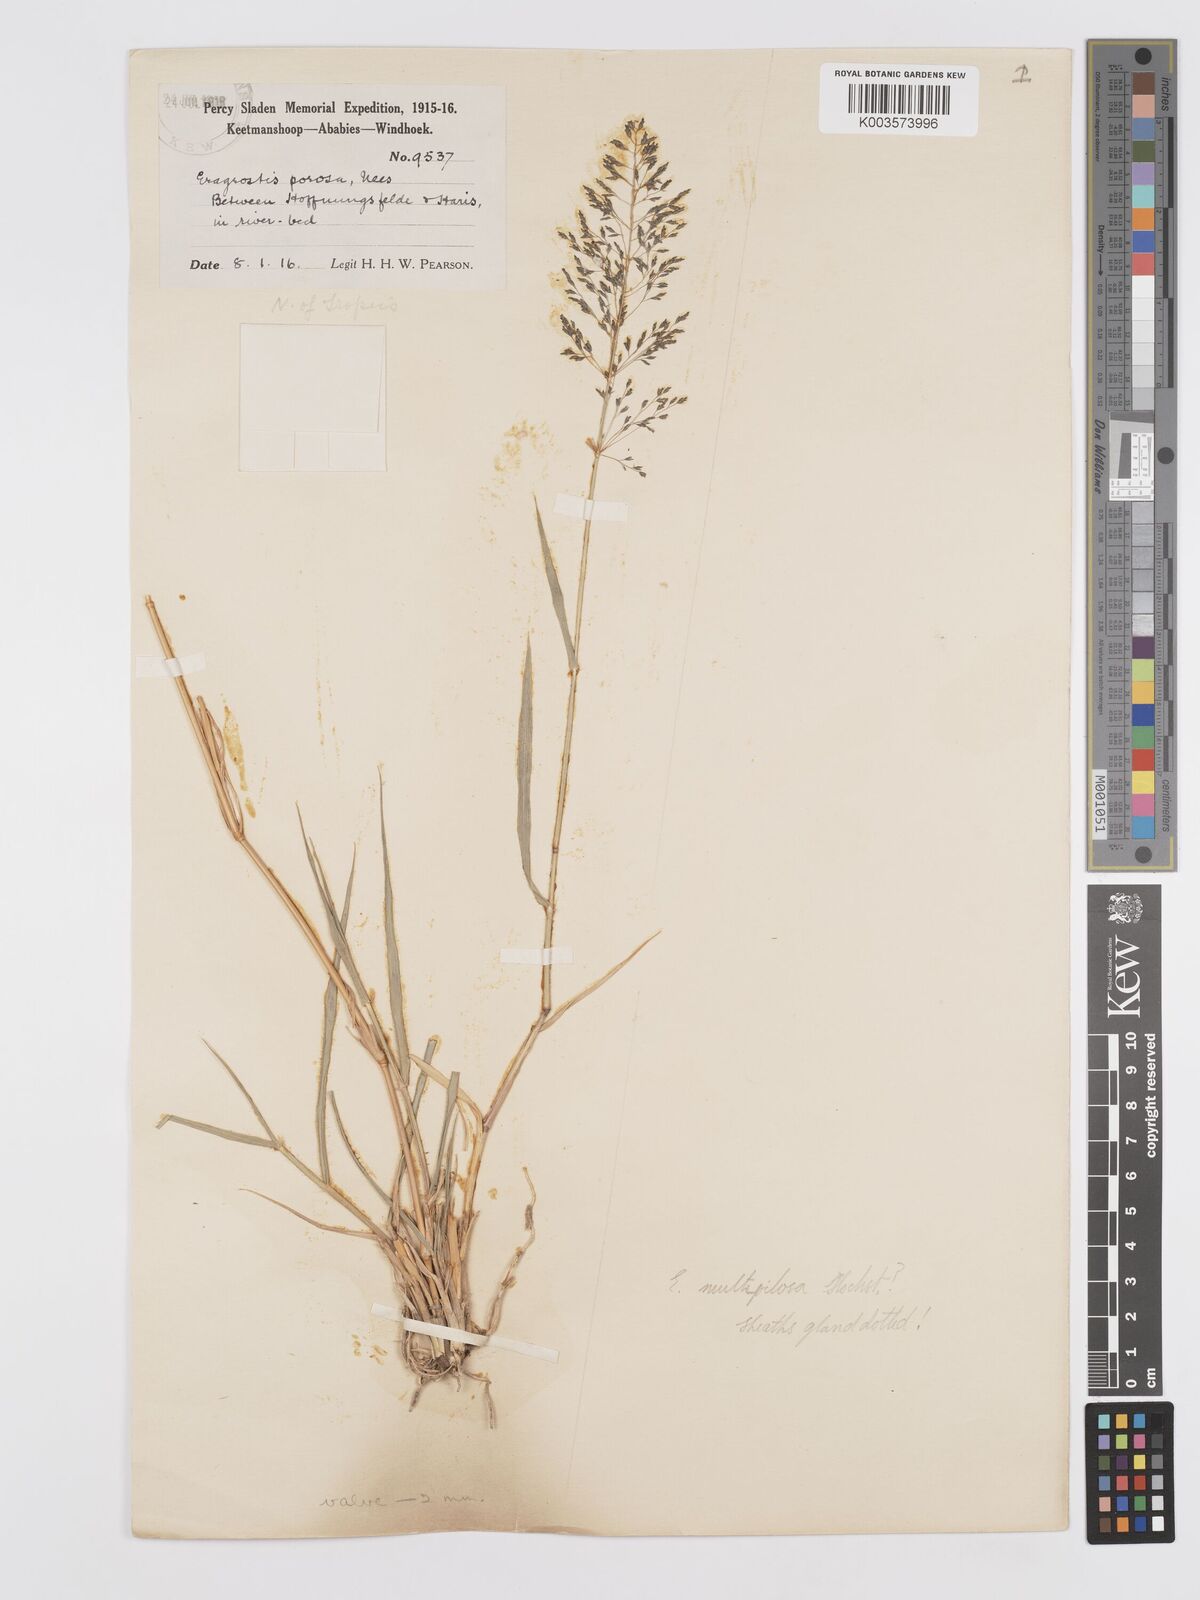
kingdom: Plantae
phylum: Tracheophyta
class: Liliopsida
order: Poales
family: Poaceae
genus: Eragrostis
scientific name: Eragrostis cylindriflora
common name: Cylinderflower lovegrass
